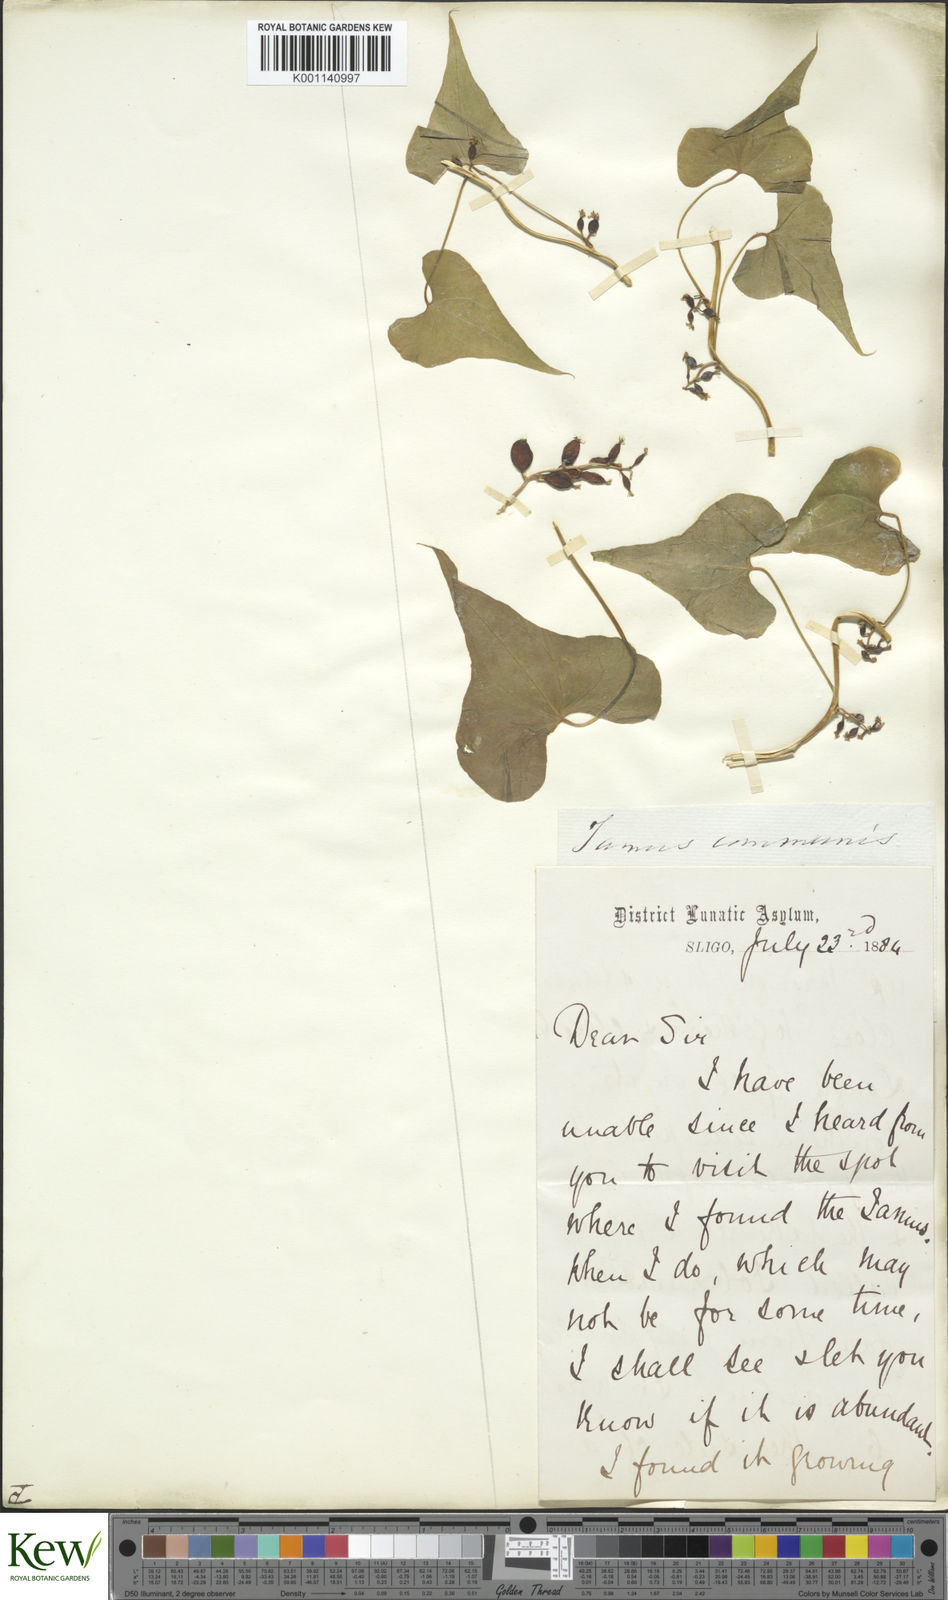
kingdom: Plantae
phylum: Tracheophyta
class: Liliopsida
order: Dioscoreales
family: Dioscoreaceae
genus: Dioscorea
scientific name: Dioscorea communis
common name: Black-bindweed
